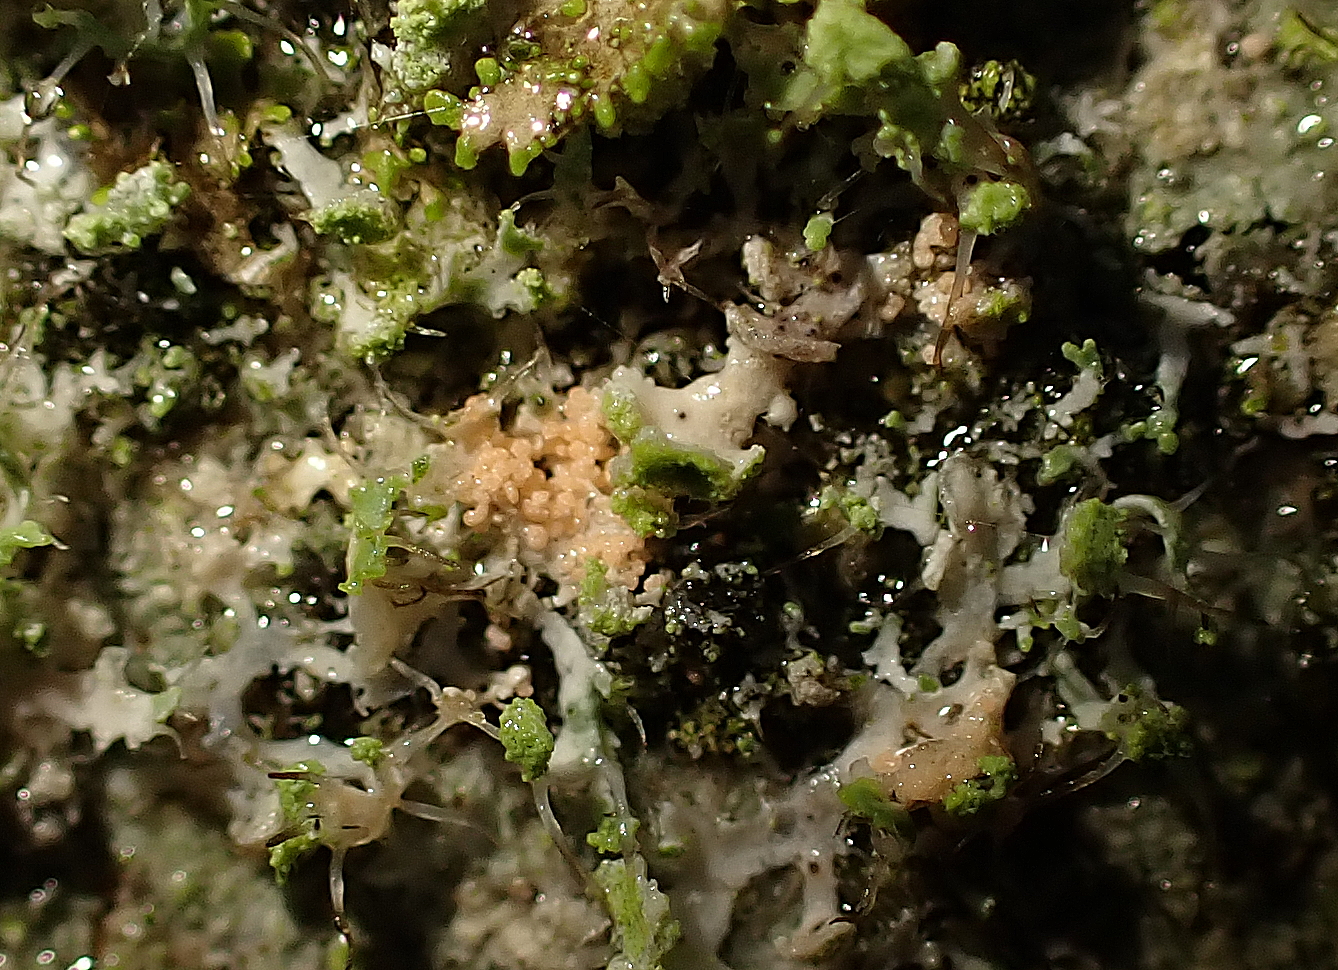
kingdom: Fungi
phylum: Basidiomycota
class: Agaricomycetes
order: Corticiales
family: Corticiaceae
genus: Erythricium
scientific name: Erythricium aurantiacum
